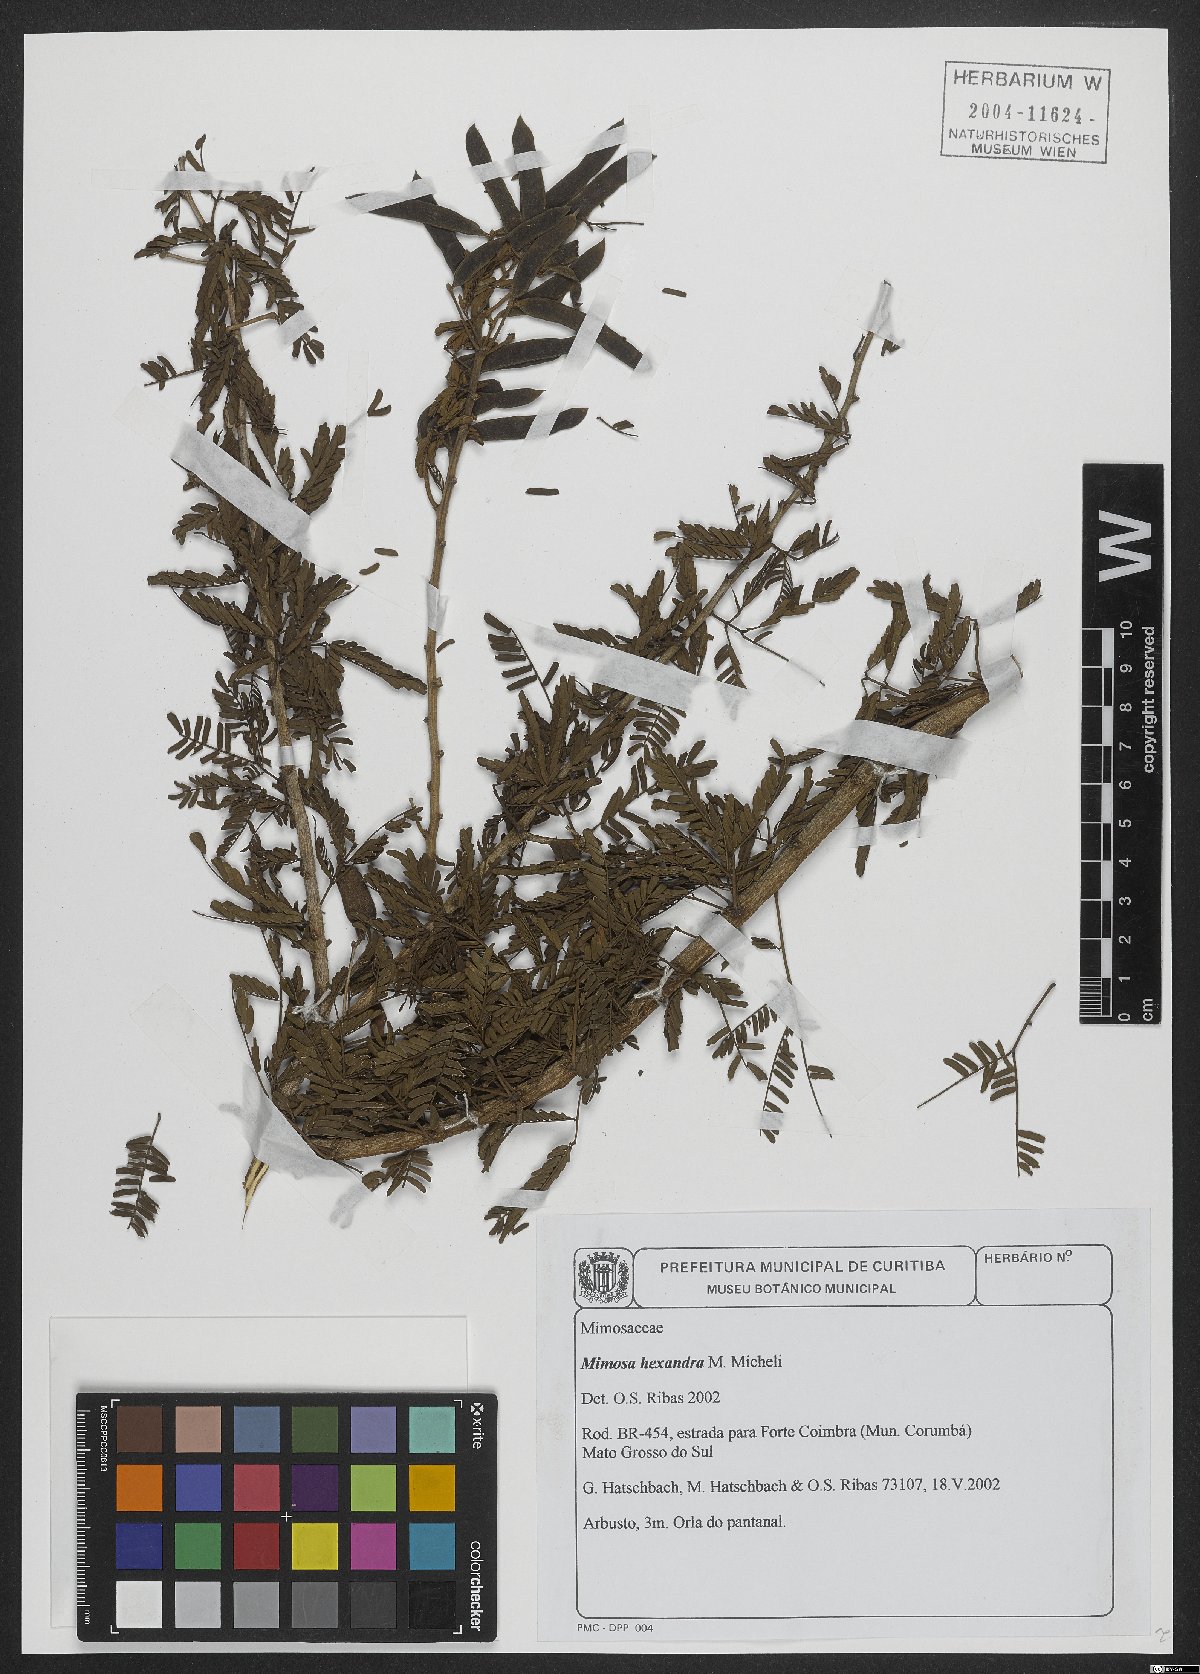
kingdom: Plantae
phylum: Tracheophyta
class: Magnoliopsida
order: Fabales
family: Fabaceae
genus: Mimosa
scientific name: Mimosa hexandra
